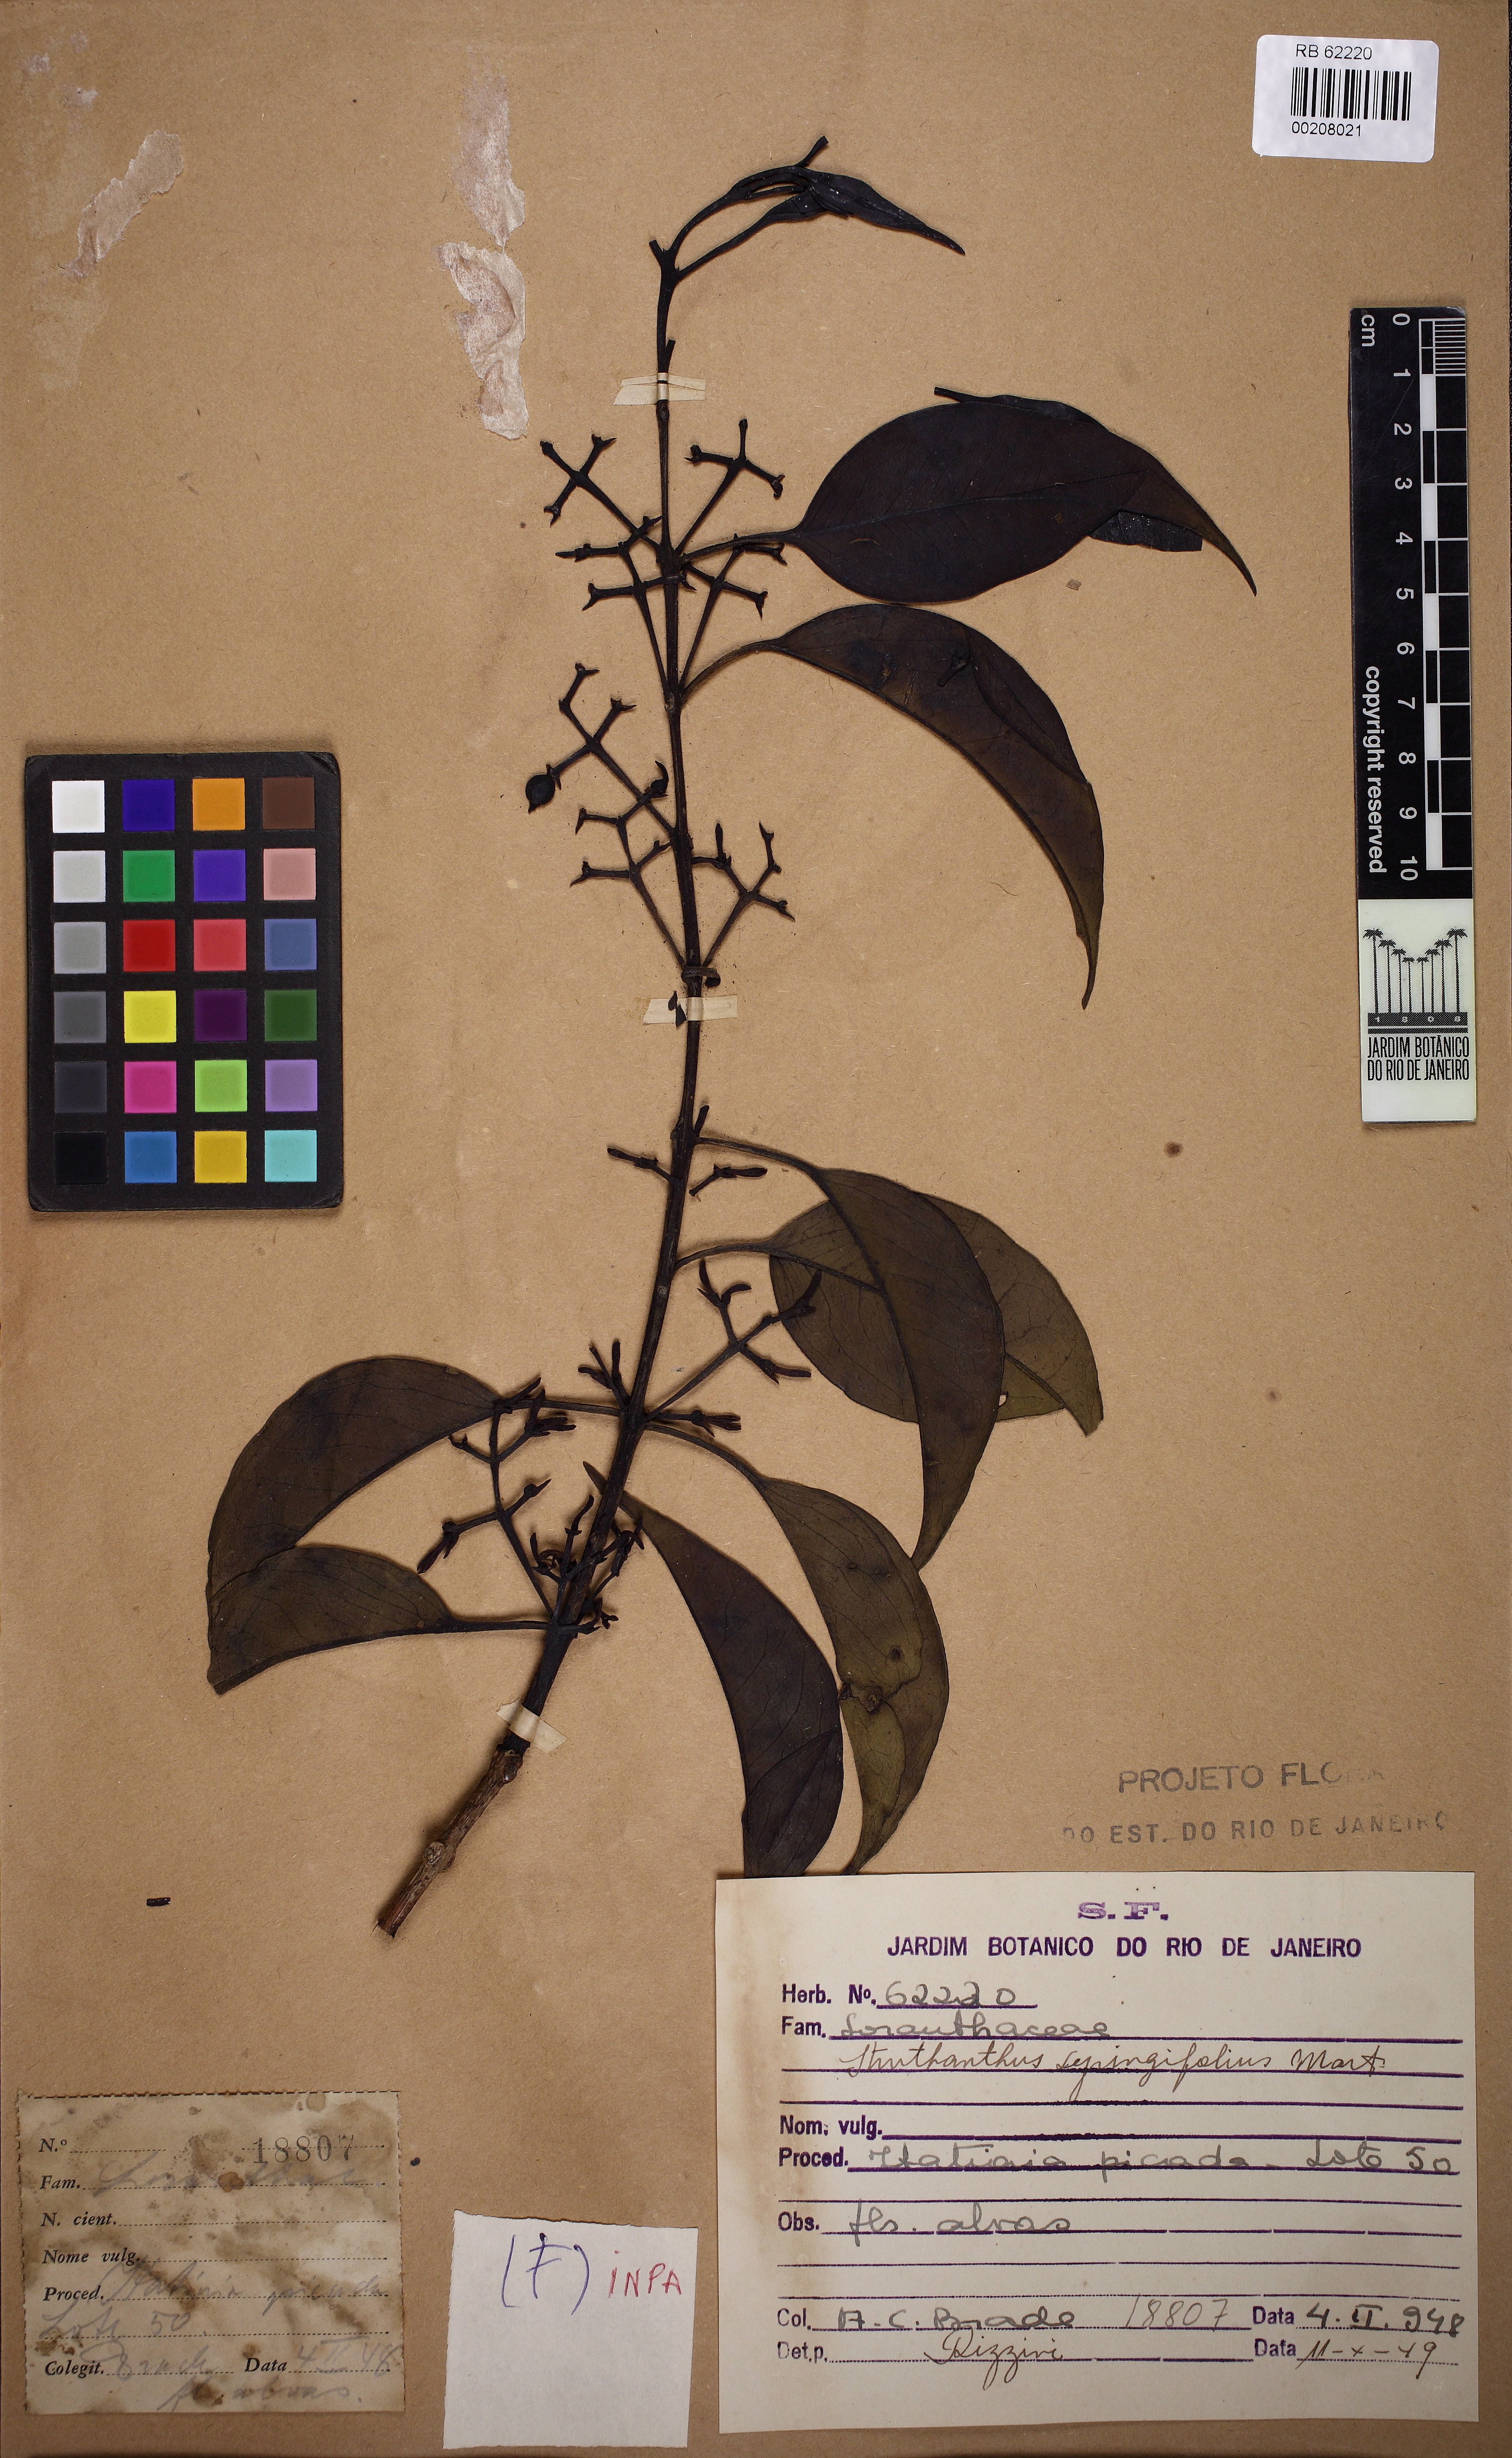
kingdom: Plantae
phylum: Tracheophyta
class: Magnoliopsida
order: Santalales
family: Loranthaceae
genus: Struthanthus
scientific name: Struthanthus syringifolius
